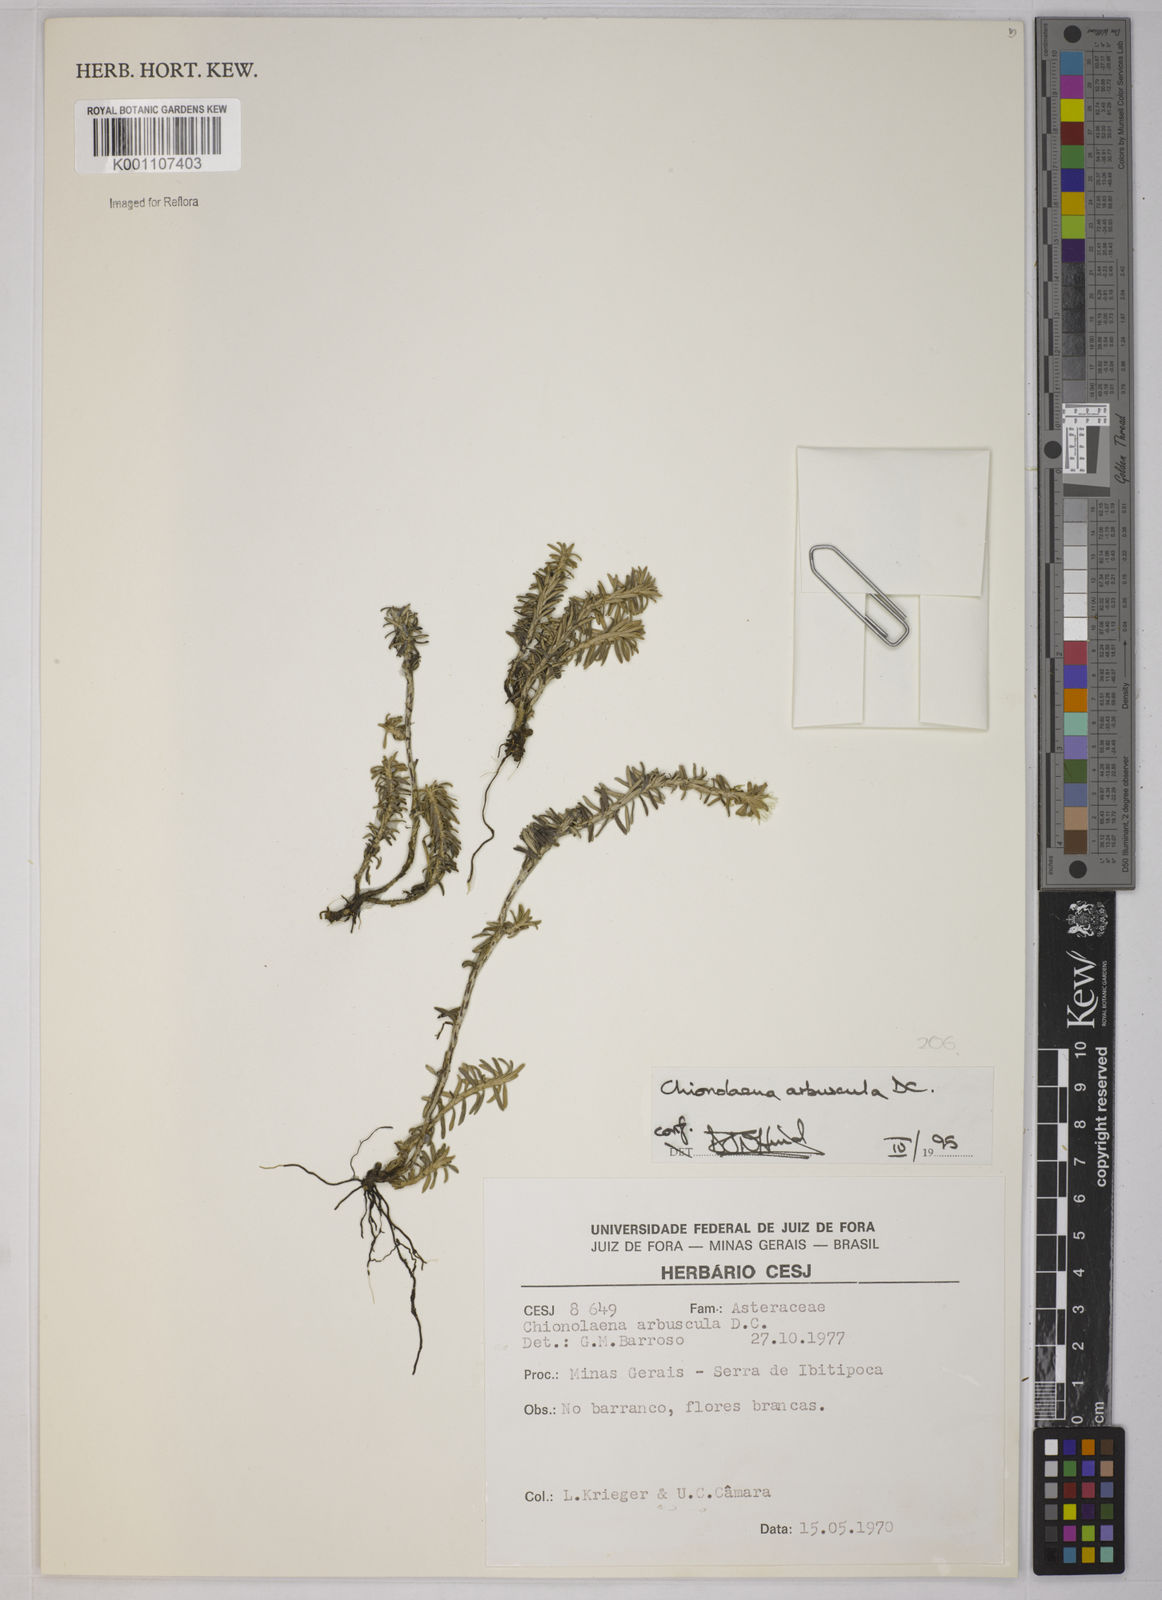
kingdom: Plantae
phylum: Tracheophyta
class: Magnoliopsida
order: Asterales
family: Asteraceae
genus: Chionolaena
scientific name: Chionolaena arbuscula
